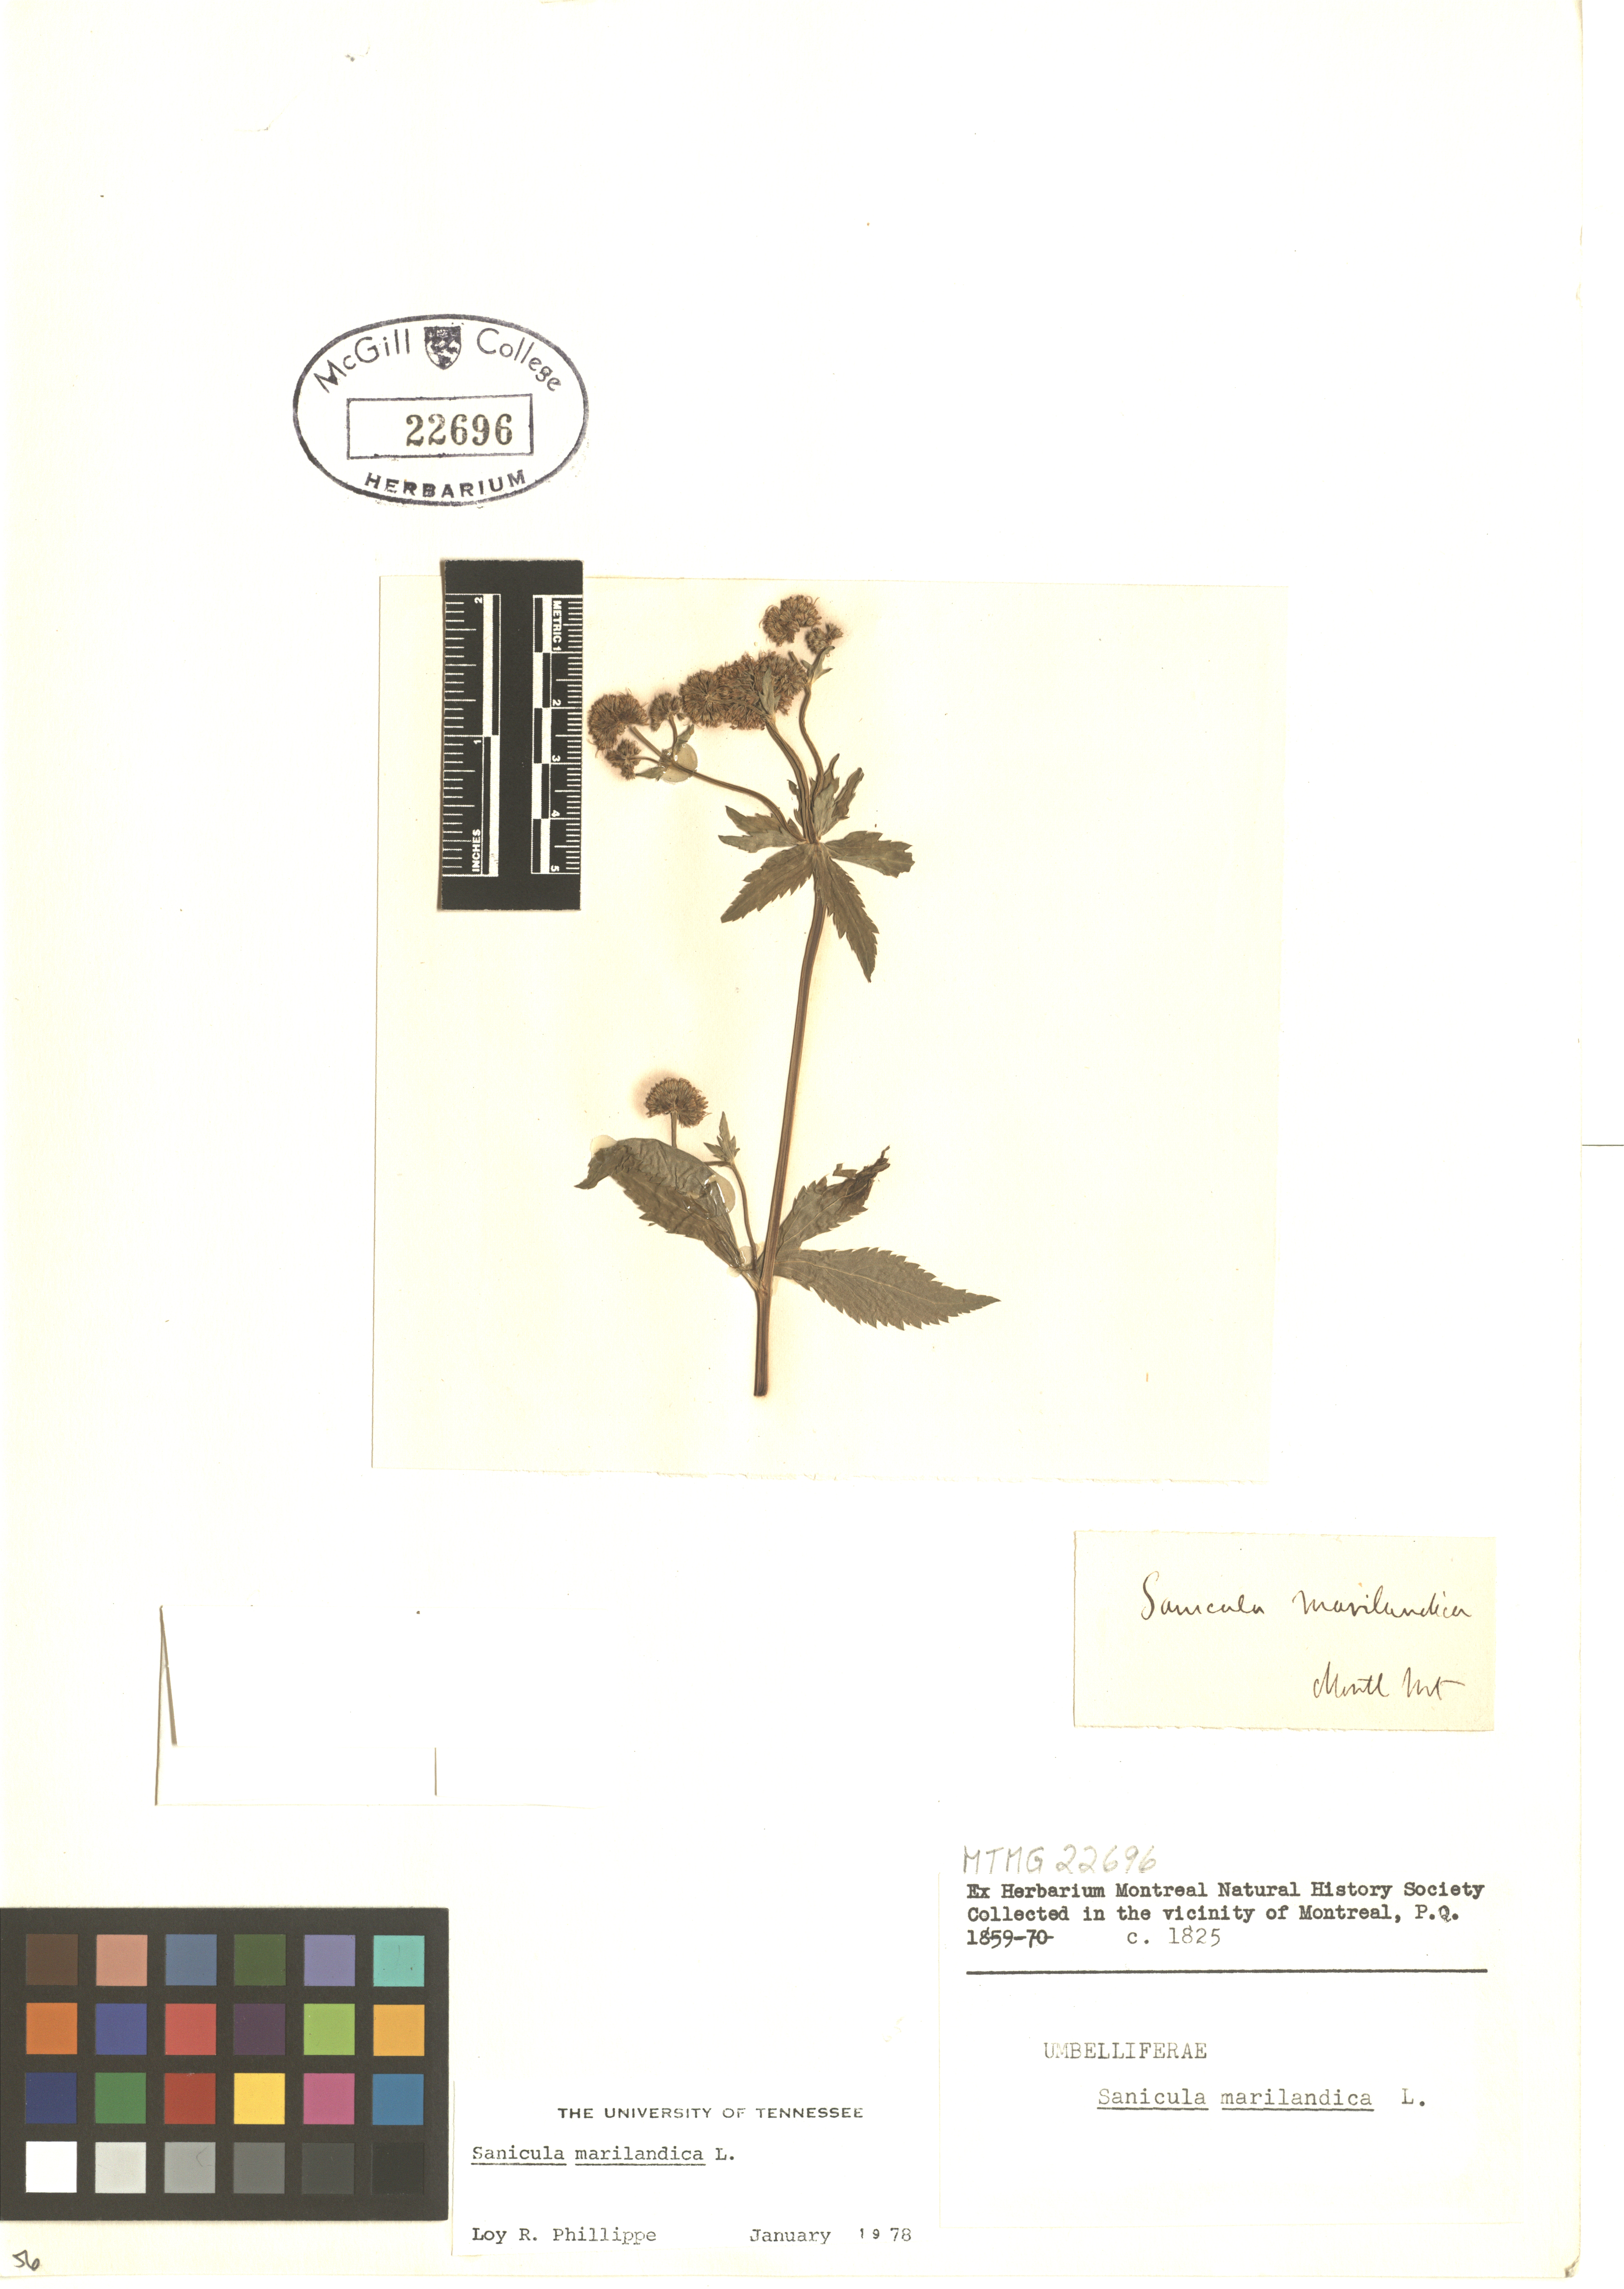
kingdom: Plantae
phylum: Tracheophyta
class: Magnoliopsida
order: Apiales
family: Apiaceae
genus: Sanicula
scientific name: Sanicula marilandica
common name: Black snakeroot
